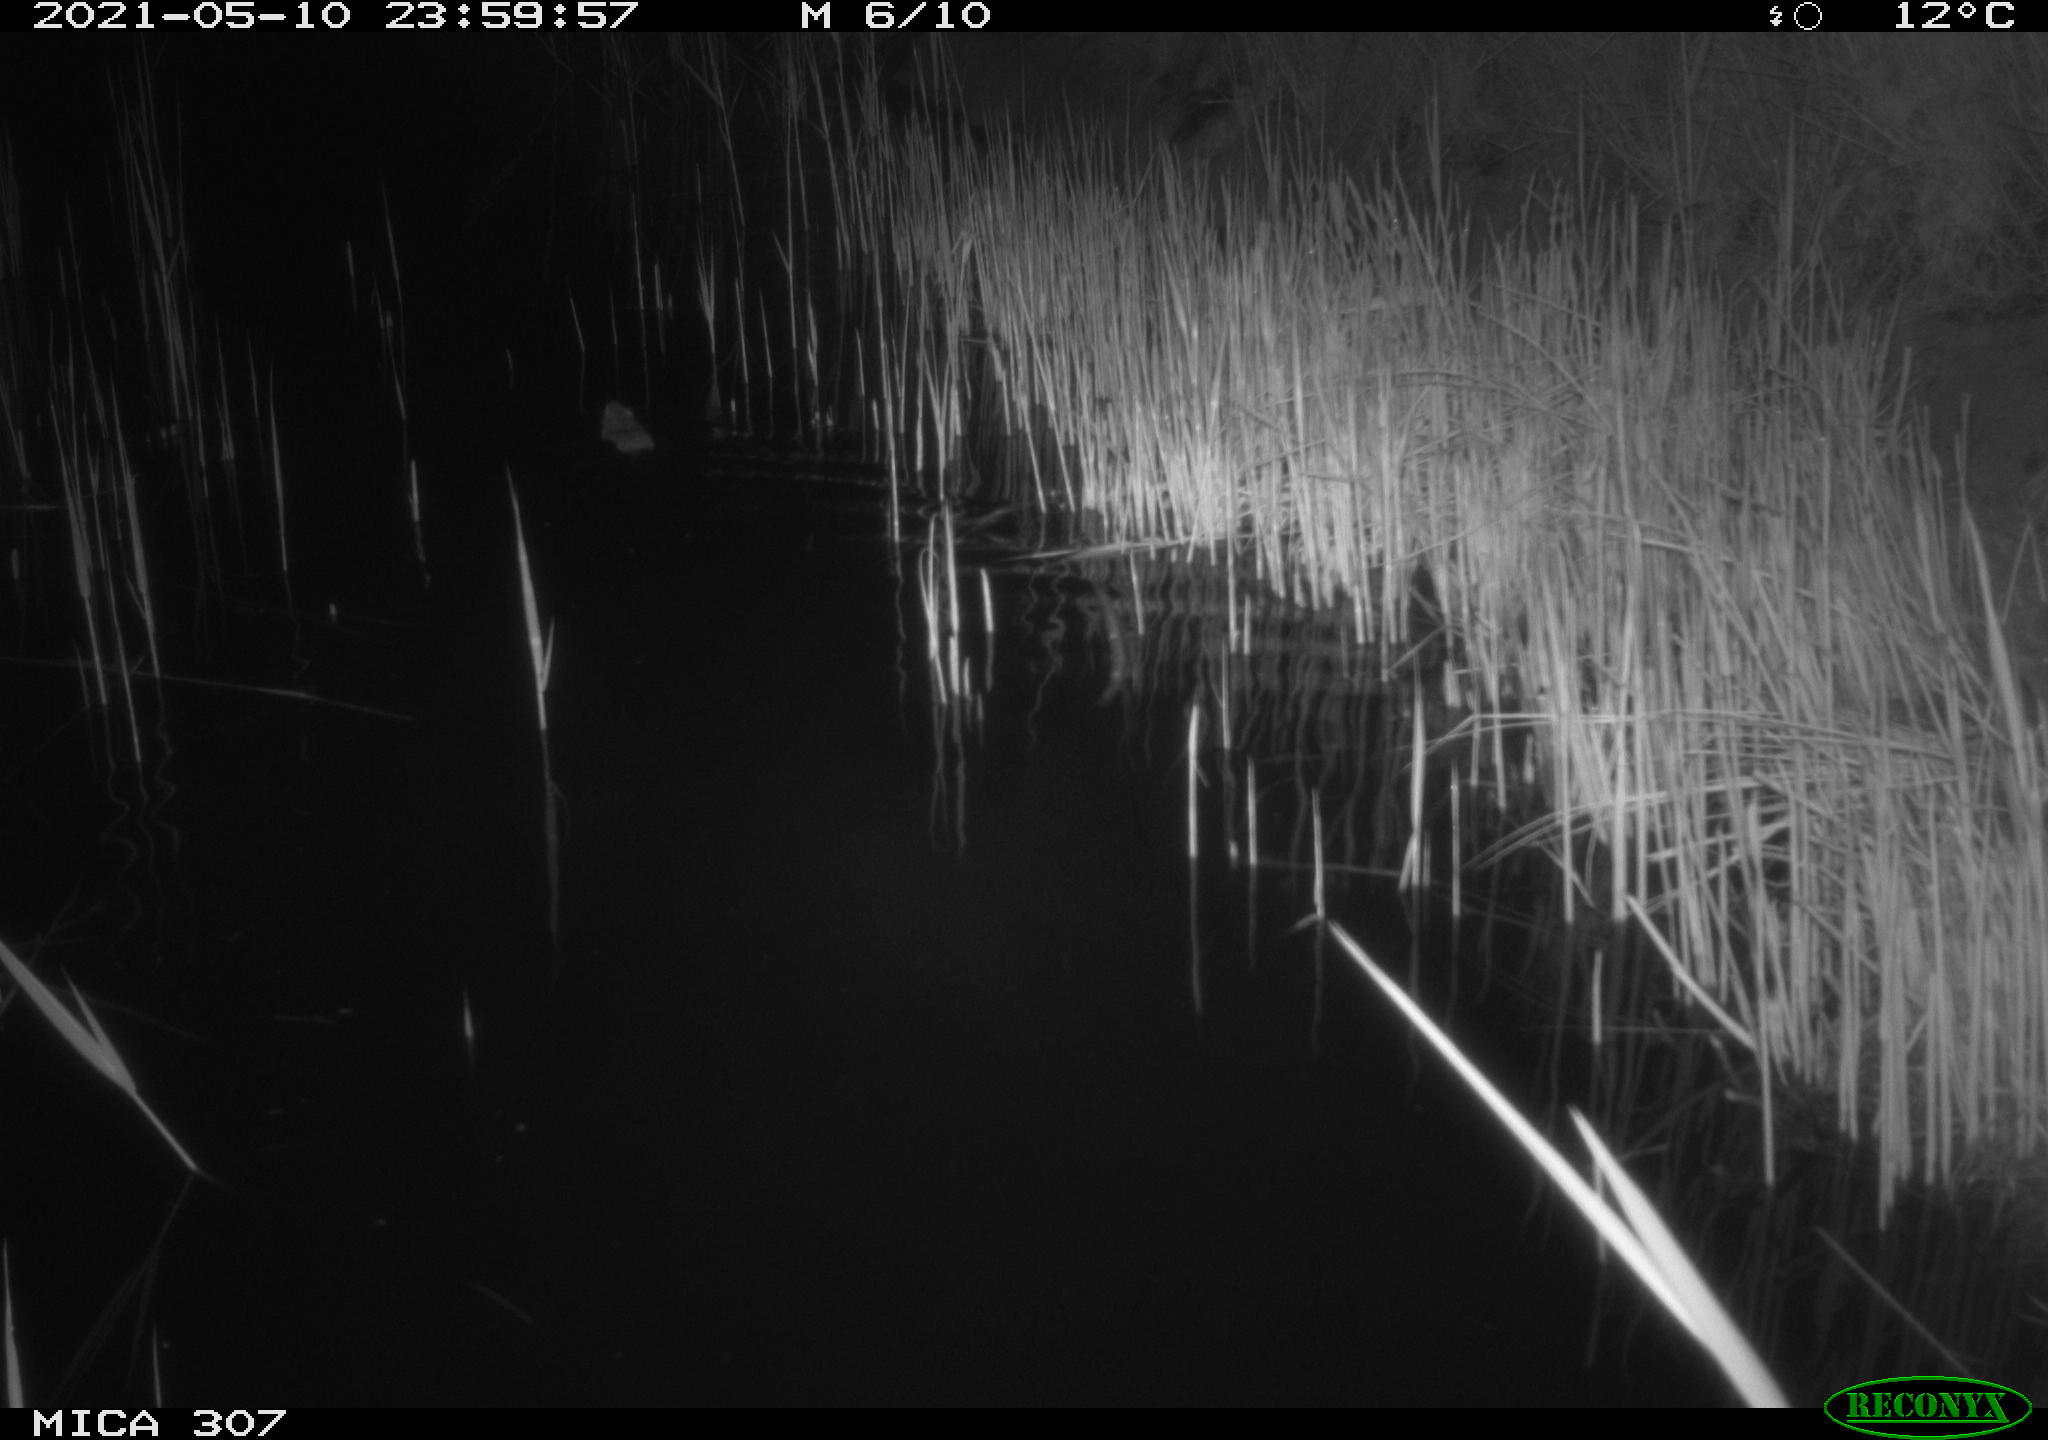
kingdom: Animalia
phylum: Chordata
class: Mammalia
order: Rodentia
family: Muridae
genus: Rattus
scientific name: Rattus norvegicus
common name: Brown rat
